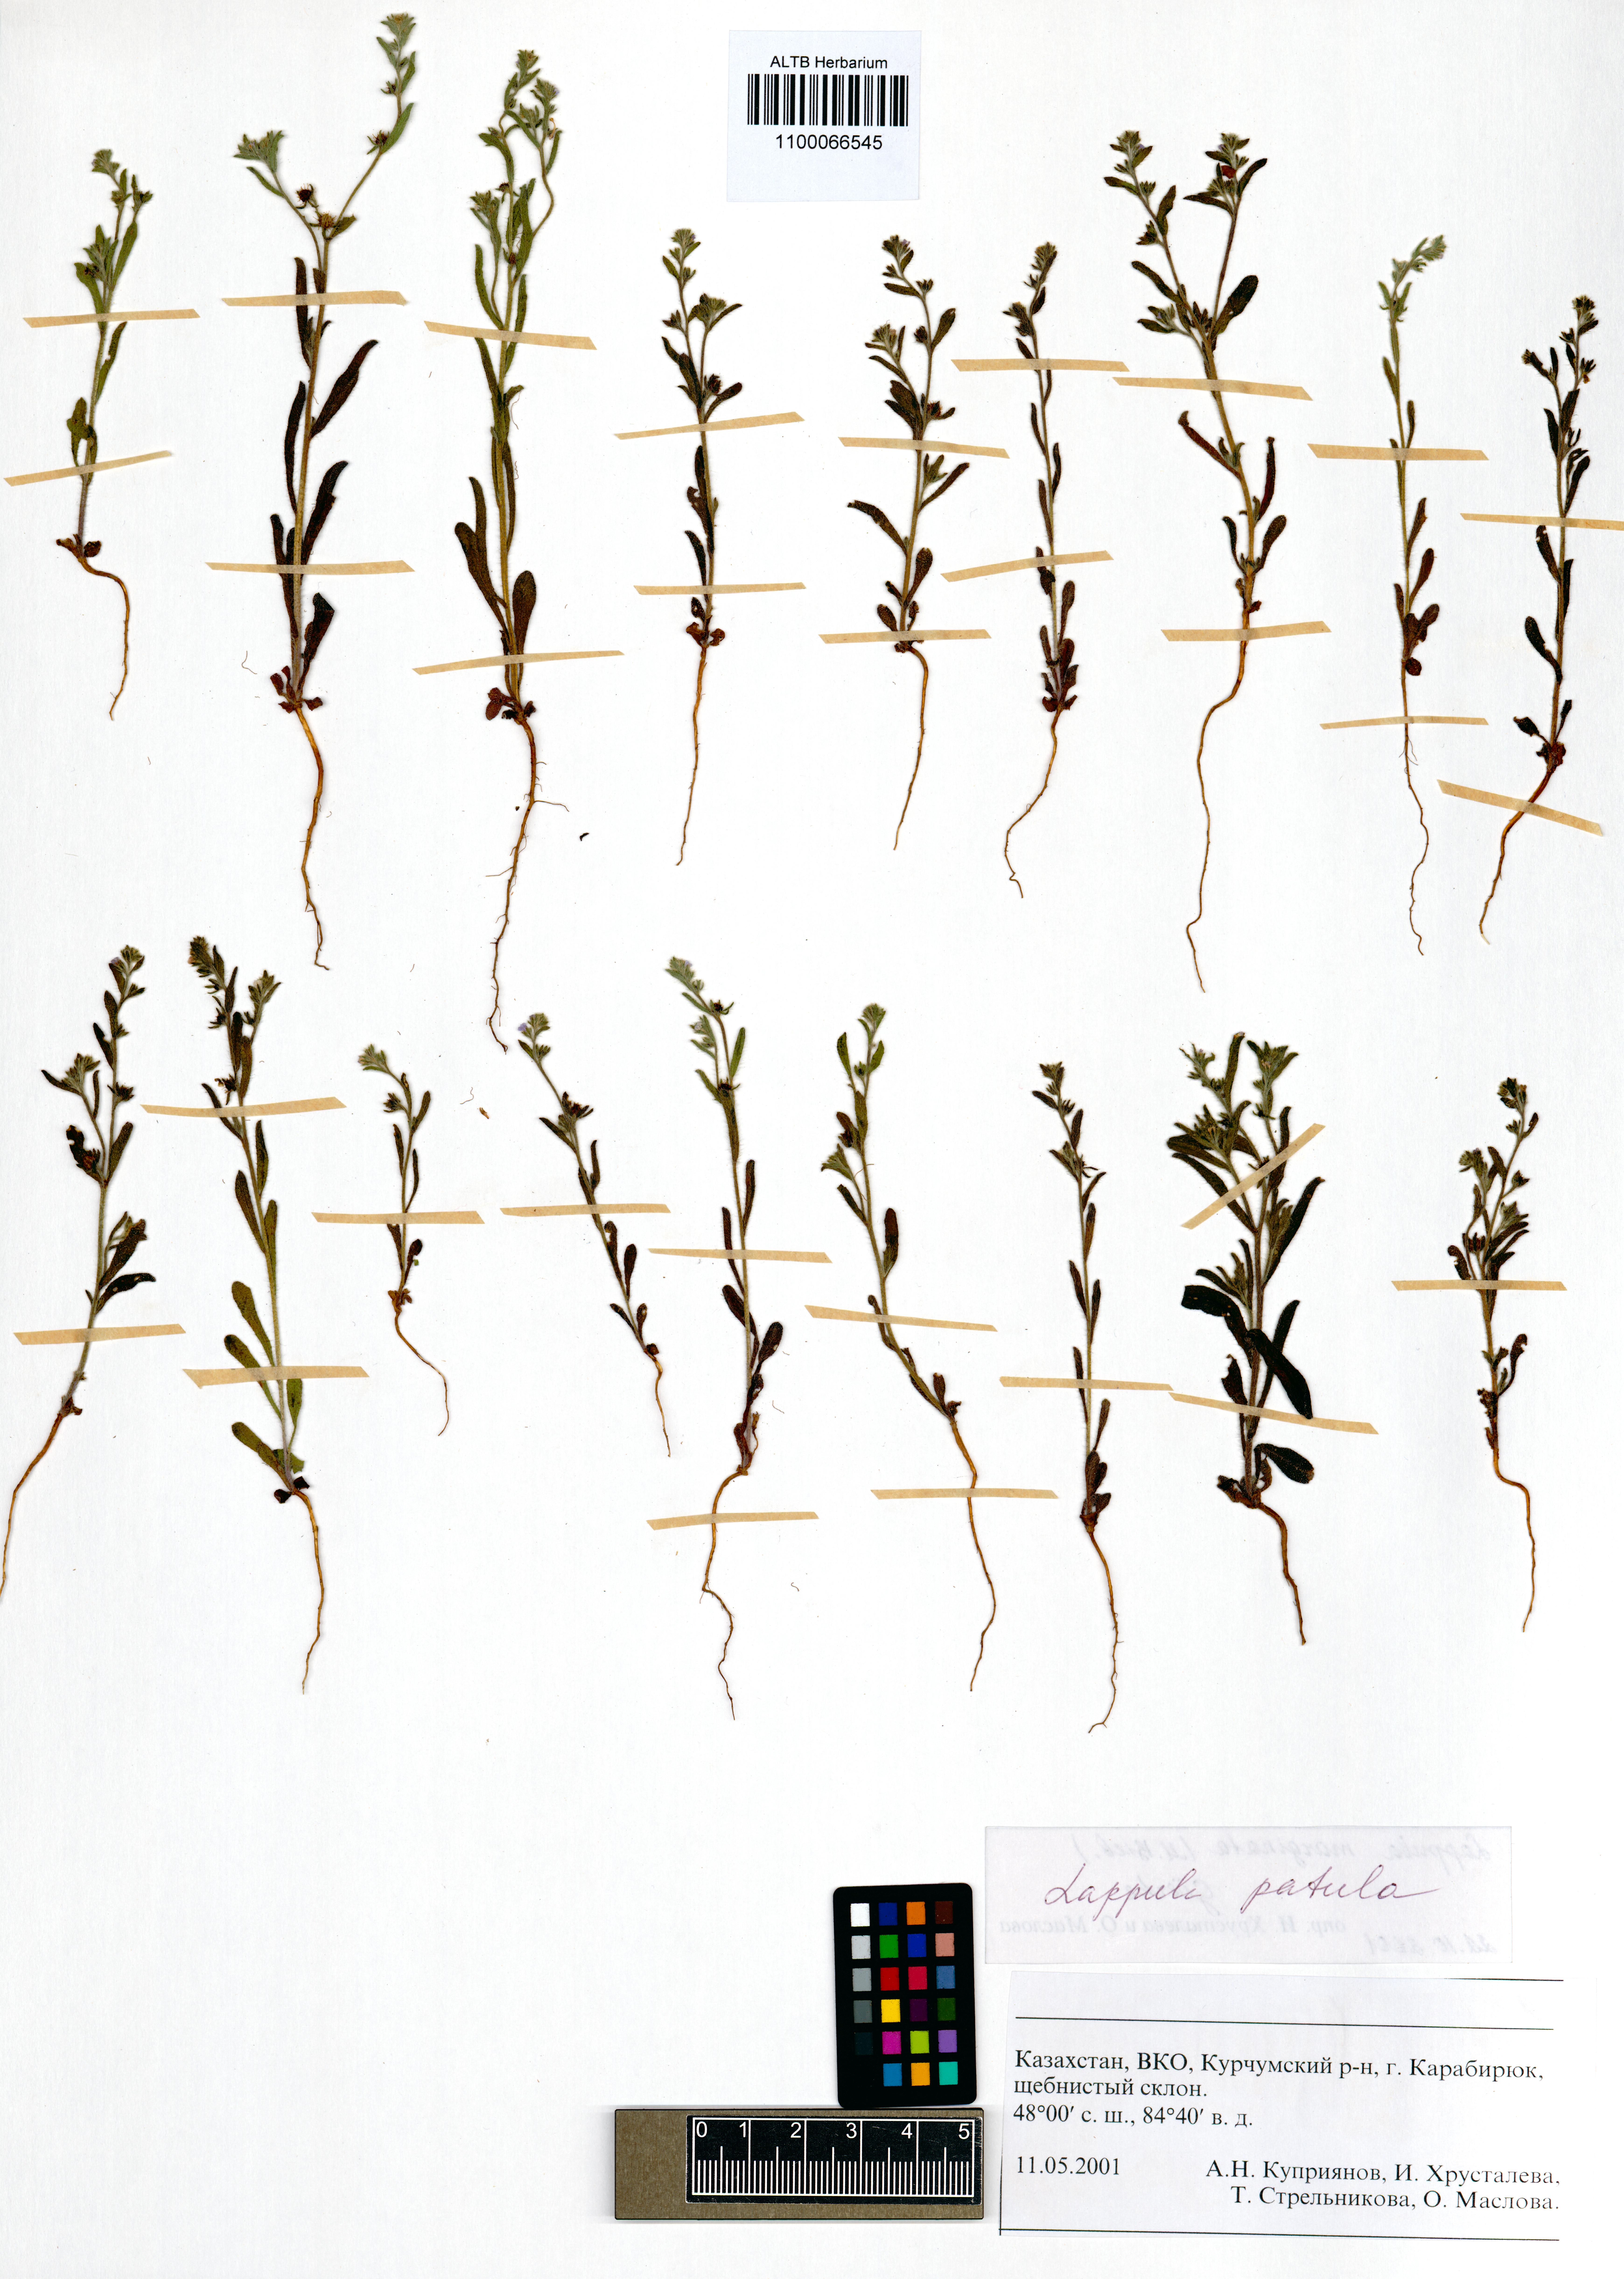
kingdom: Plantae
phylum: Tracheophyta
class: Magnoliopsida
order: Boraginales
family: Boraginaceae
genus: Lappula
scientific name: Lappula patula
